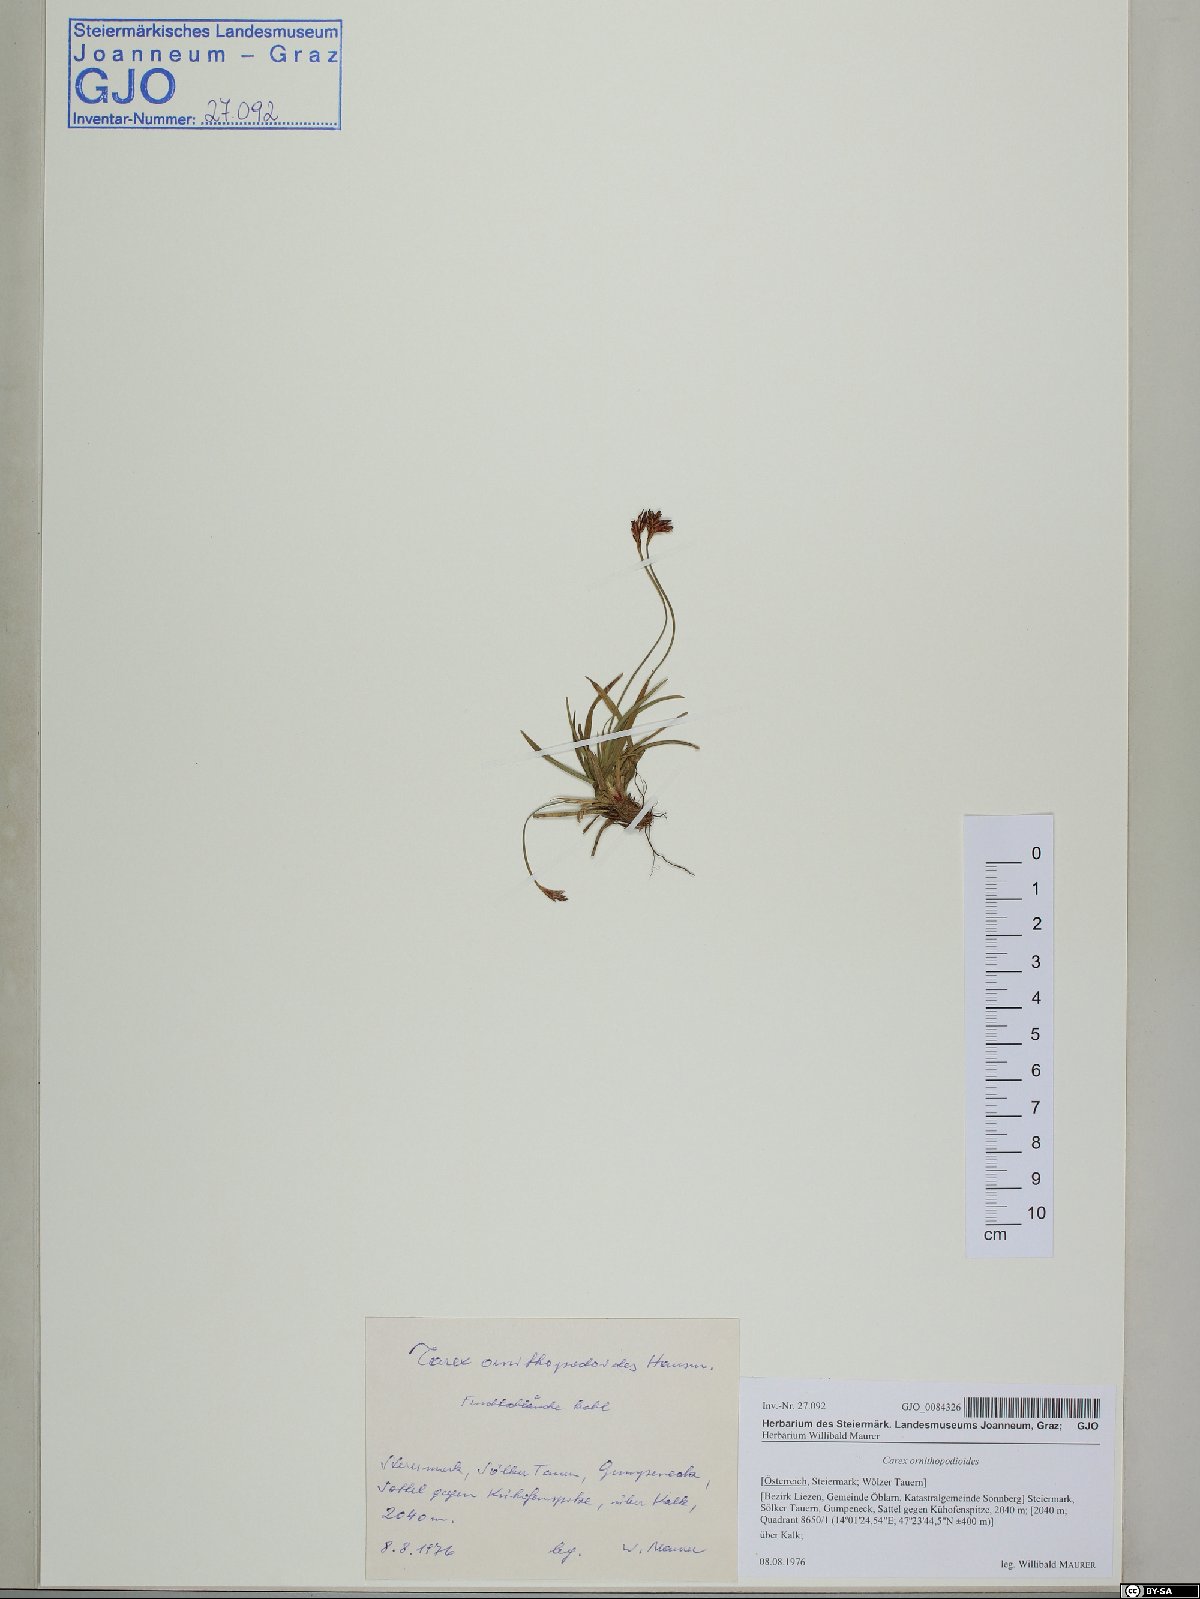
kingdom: Plantae
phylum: Tracheophyta
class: Liliopsida
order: Poales
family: Cyperaceae
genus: Carex
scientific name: Carex ornithopoda
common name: Bird's-foot sedge
